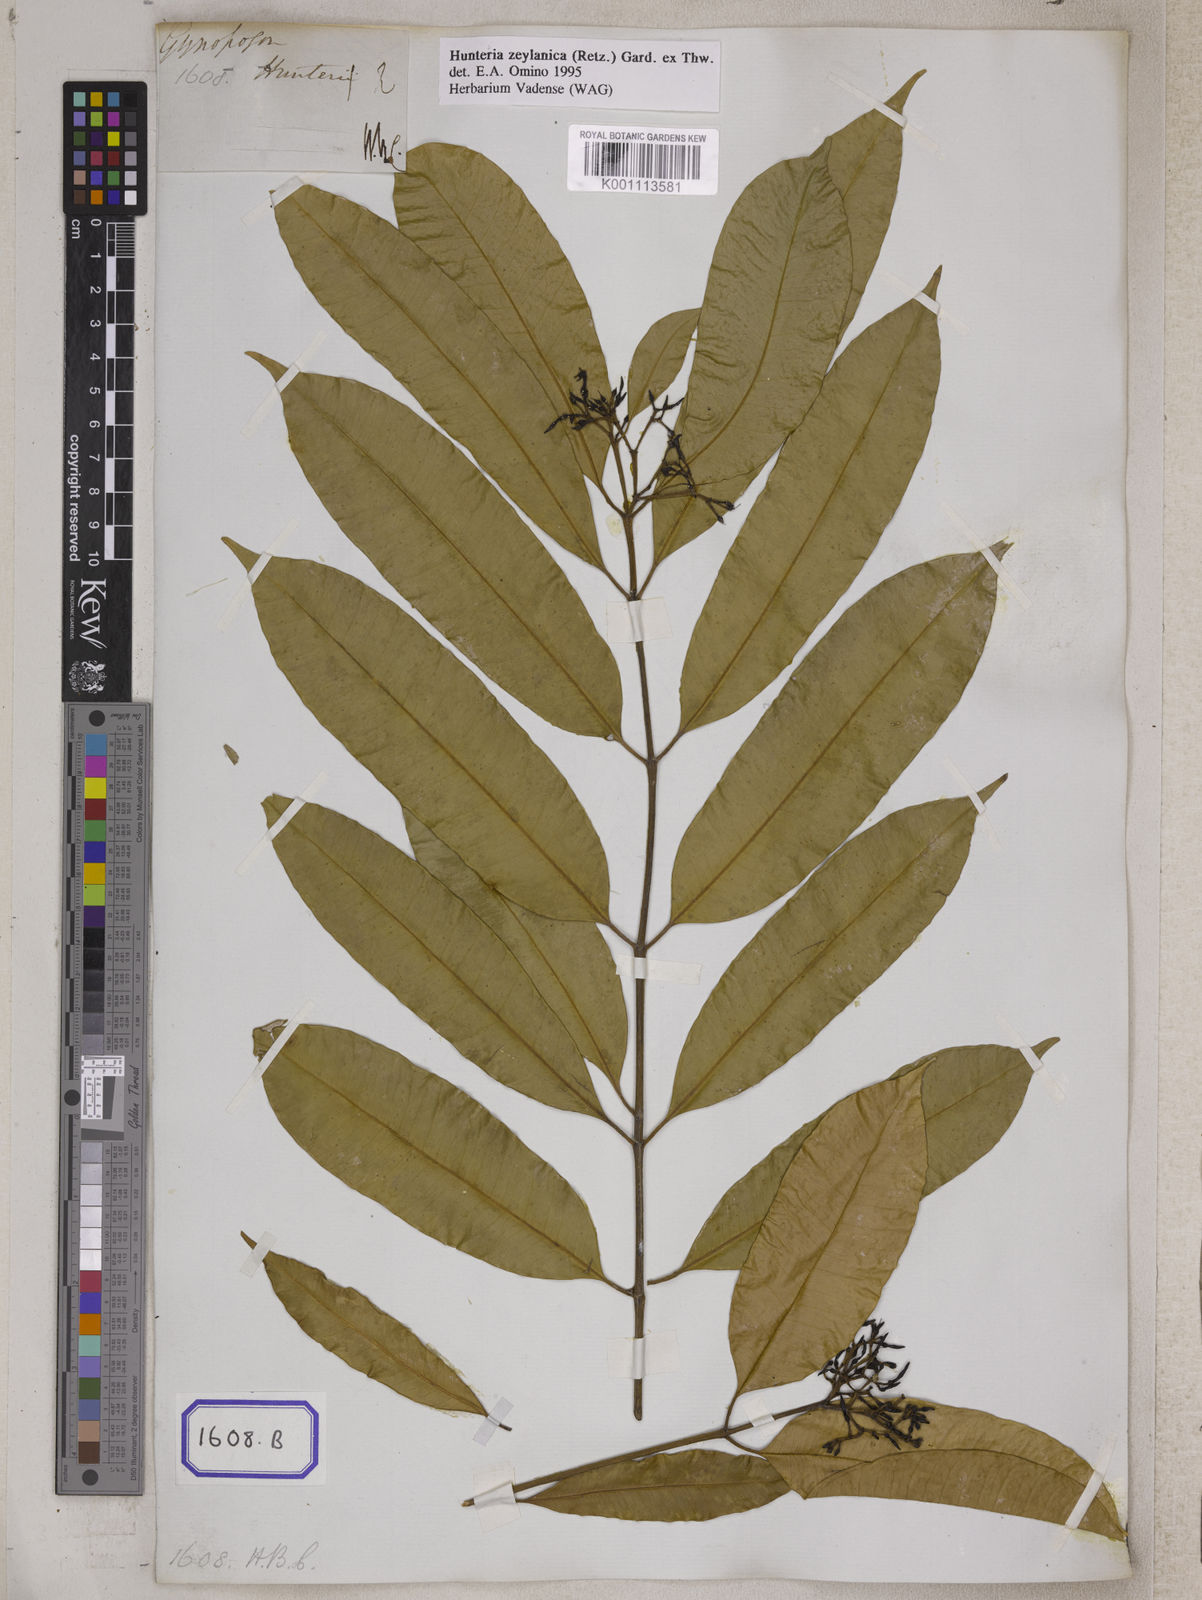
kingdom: Plantae
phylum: Tracheophyta
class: Magnoliopsida
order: Gentianales
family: Apocynaceae
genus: Hunteria
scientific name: Hunteria zeylanica
